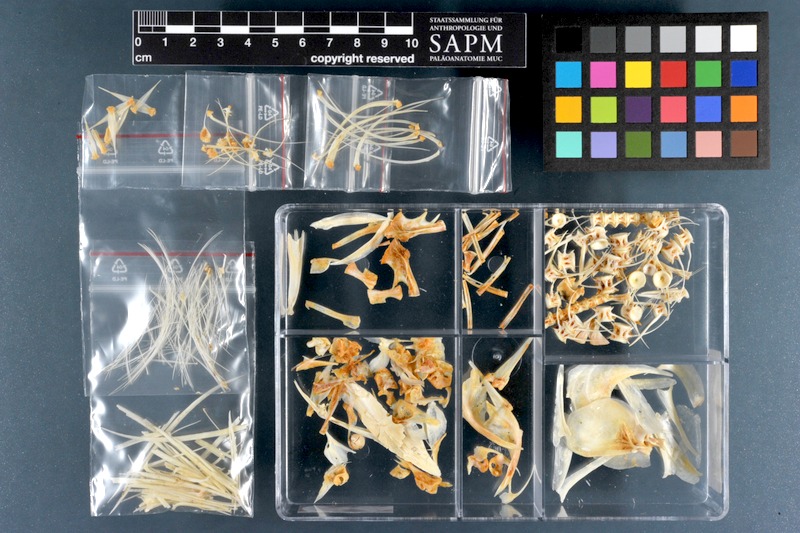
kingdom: Animalia
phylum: Chordata
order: Gonorynchiformes
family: Chanidae
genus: Chanos
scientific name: Chanos chanos
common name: Milkfish
